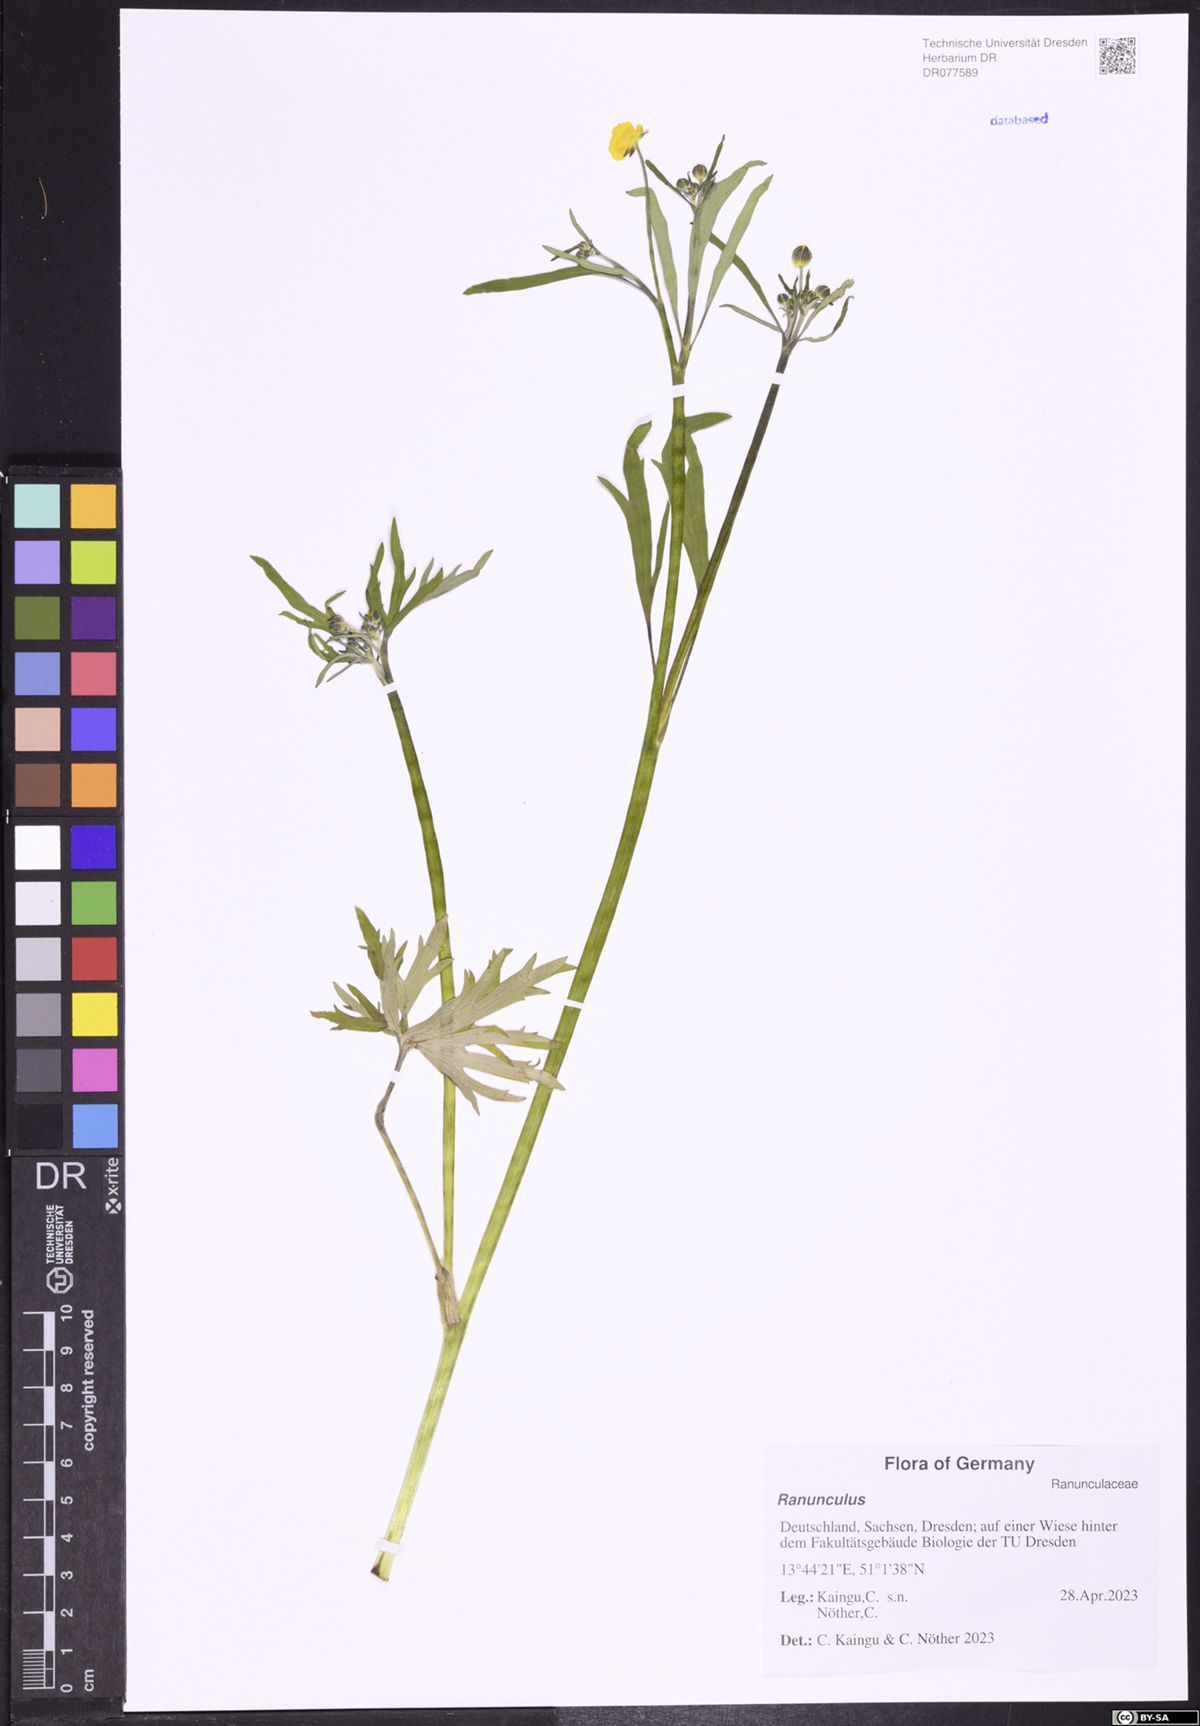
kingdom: Plantae
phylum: Tracheophyta
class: Magnoliopsida
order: Ranunculales
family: Ranunculaceae
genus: Ranunculus
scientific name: Ranunculus
